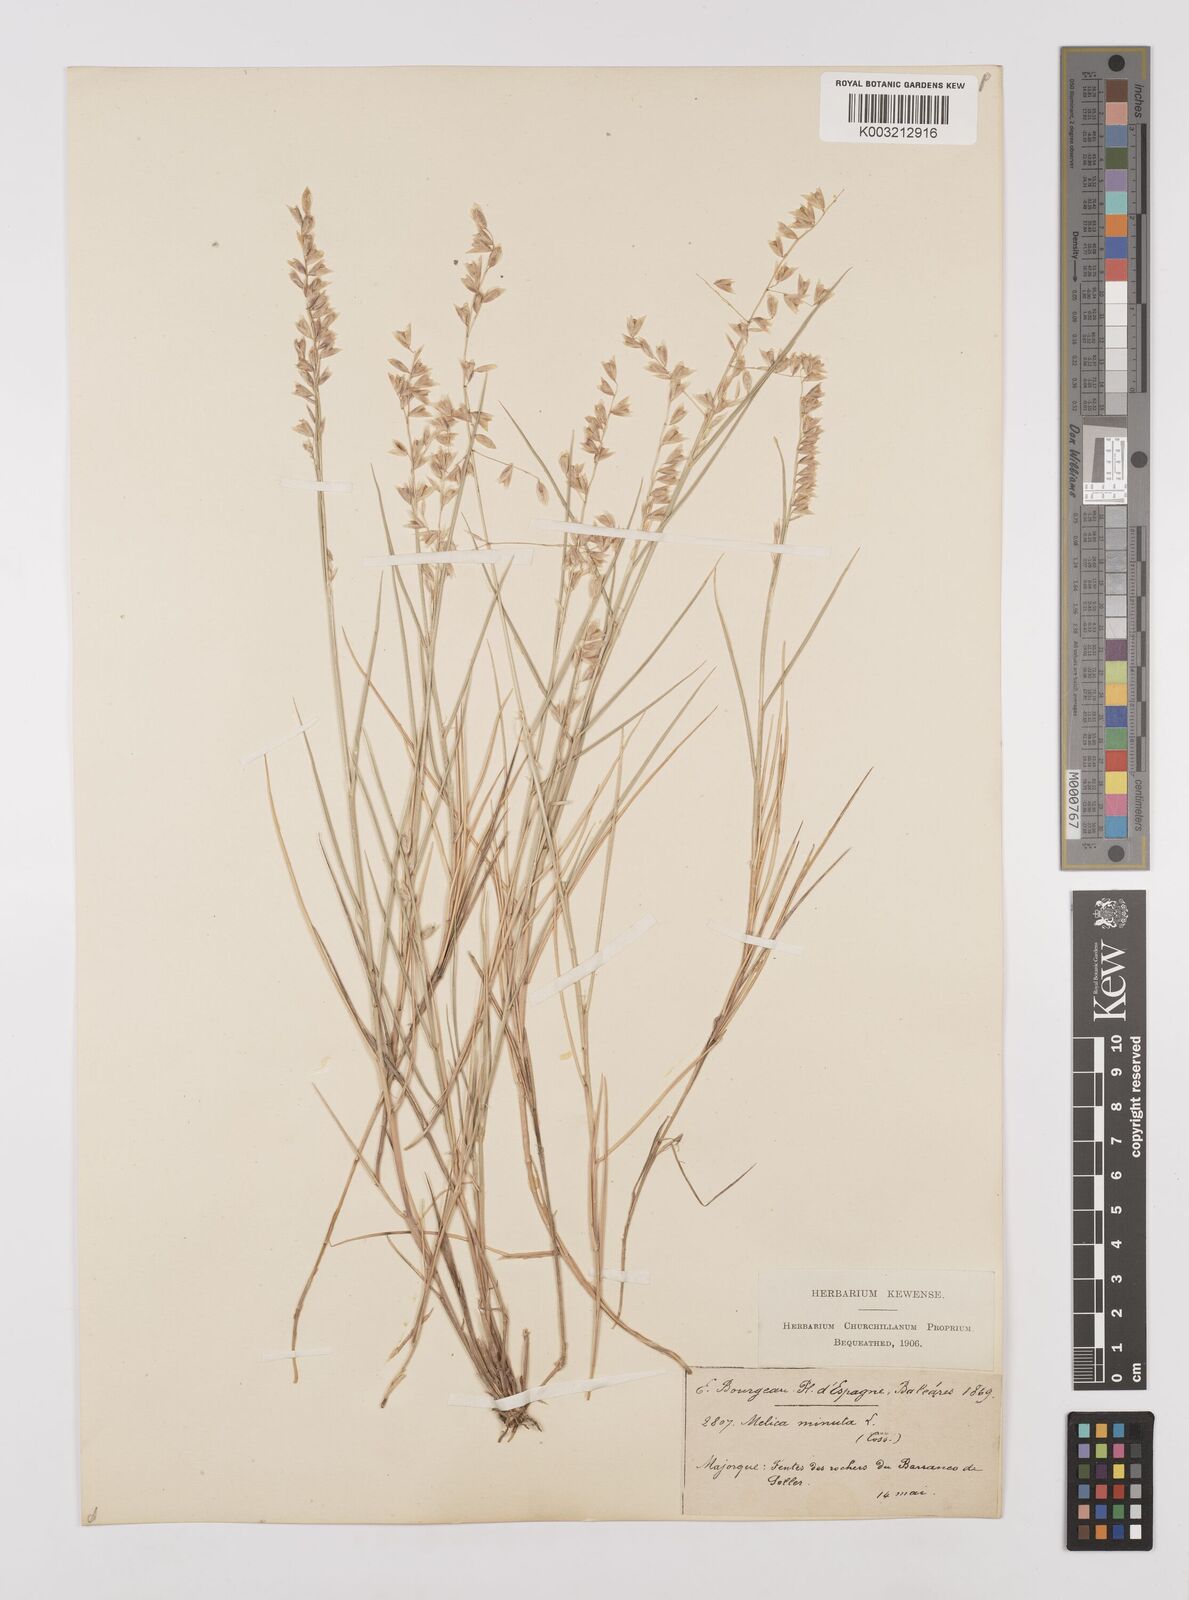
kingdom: Plantae
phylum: Tracheophyta
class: Liliopsida
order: Poales
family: Poaceae
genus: Melica
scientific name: Melica minuta
